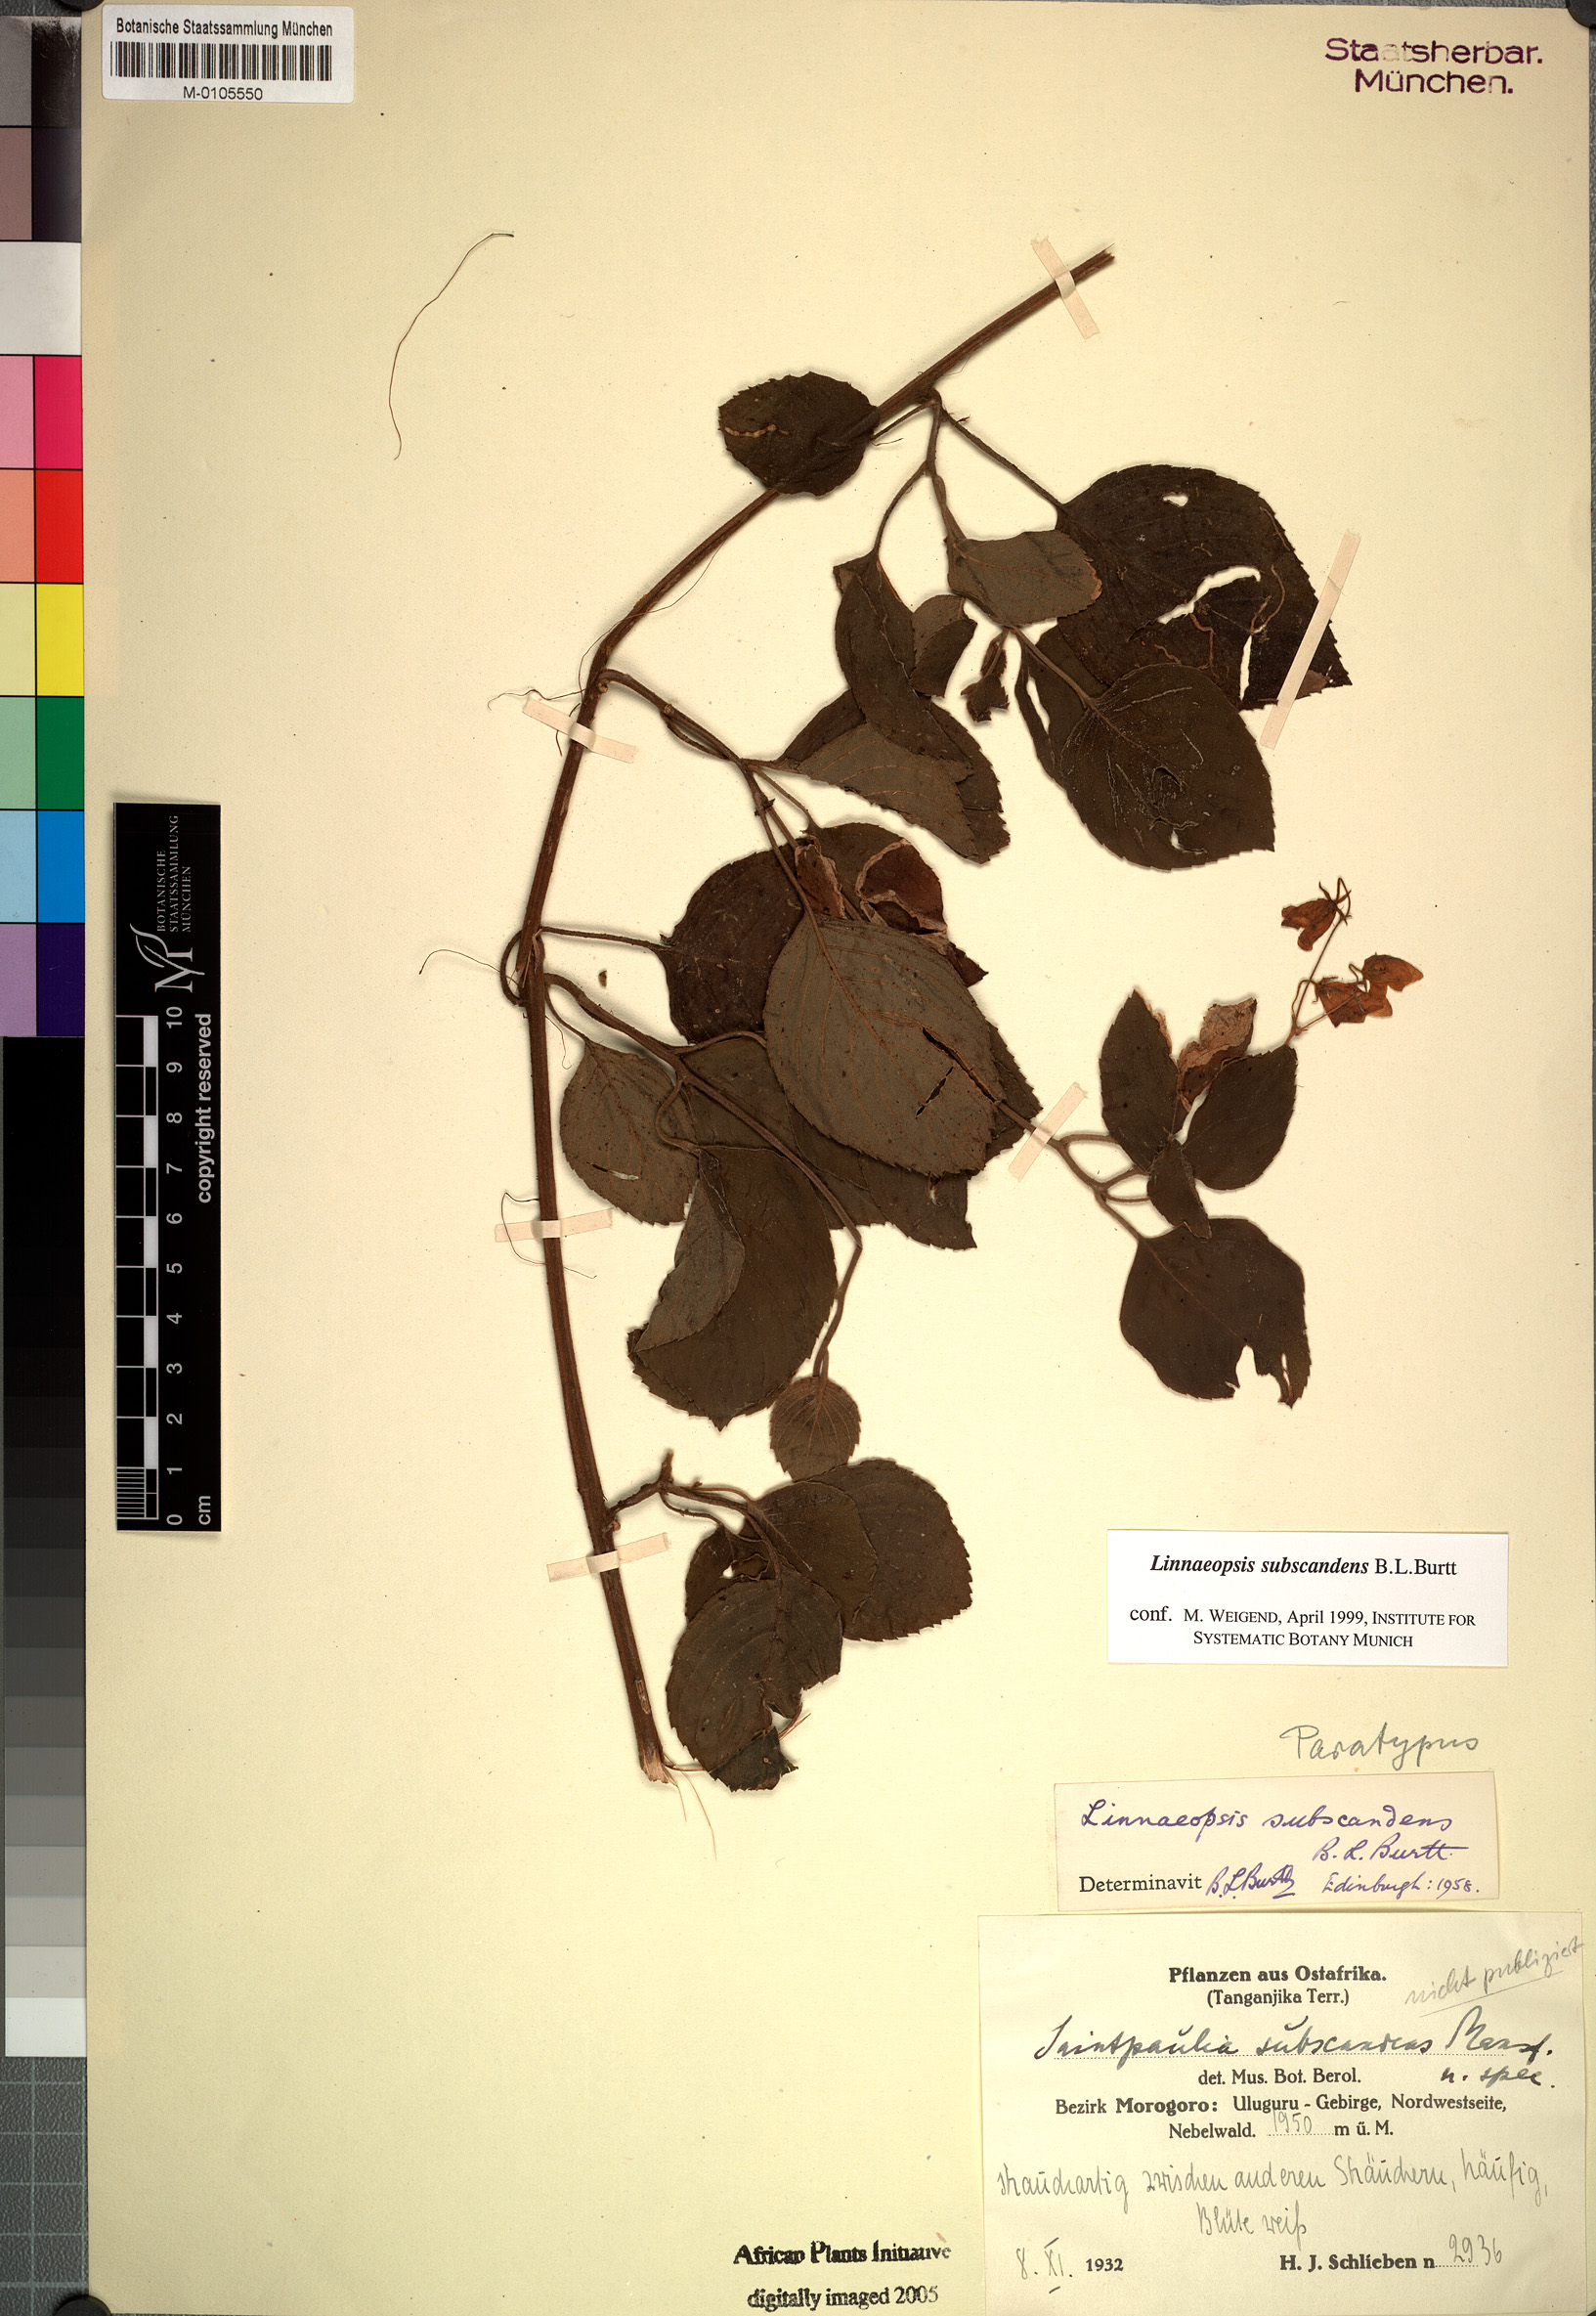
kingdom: Plantae
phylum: Tracheophyta
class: Magnoliopsida
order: Lamiales
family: Gesneriaceae
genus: Streptocarpus
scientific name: Streptocarpus subscandens
